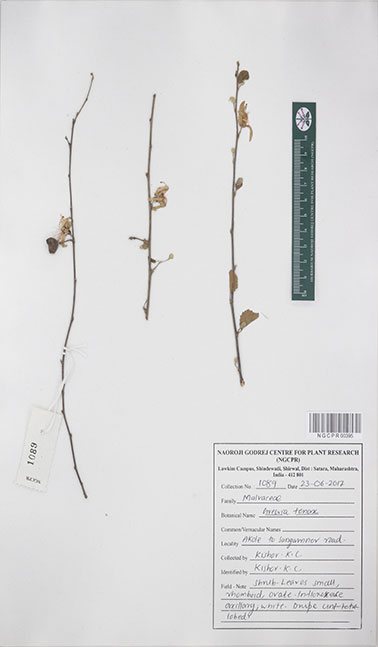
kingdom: Plantae
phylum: Tracheophyta
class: Magnoliopsida
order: Malvales
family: Malvaceae
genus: Grewia
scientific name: Grewia tenax
